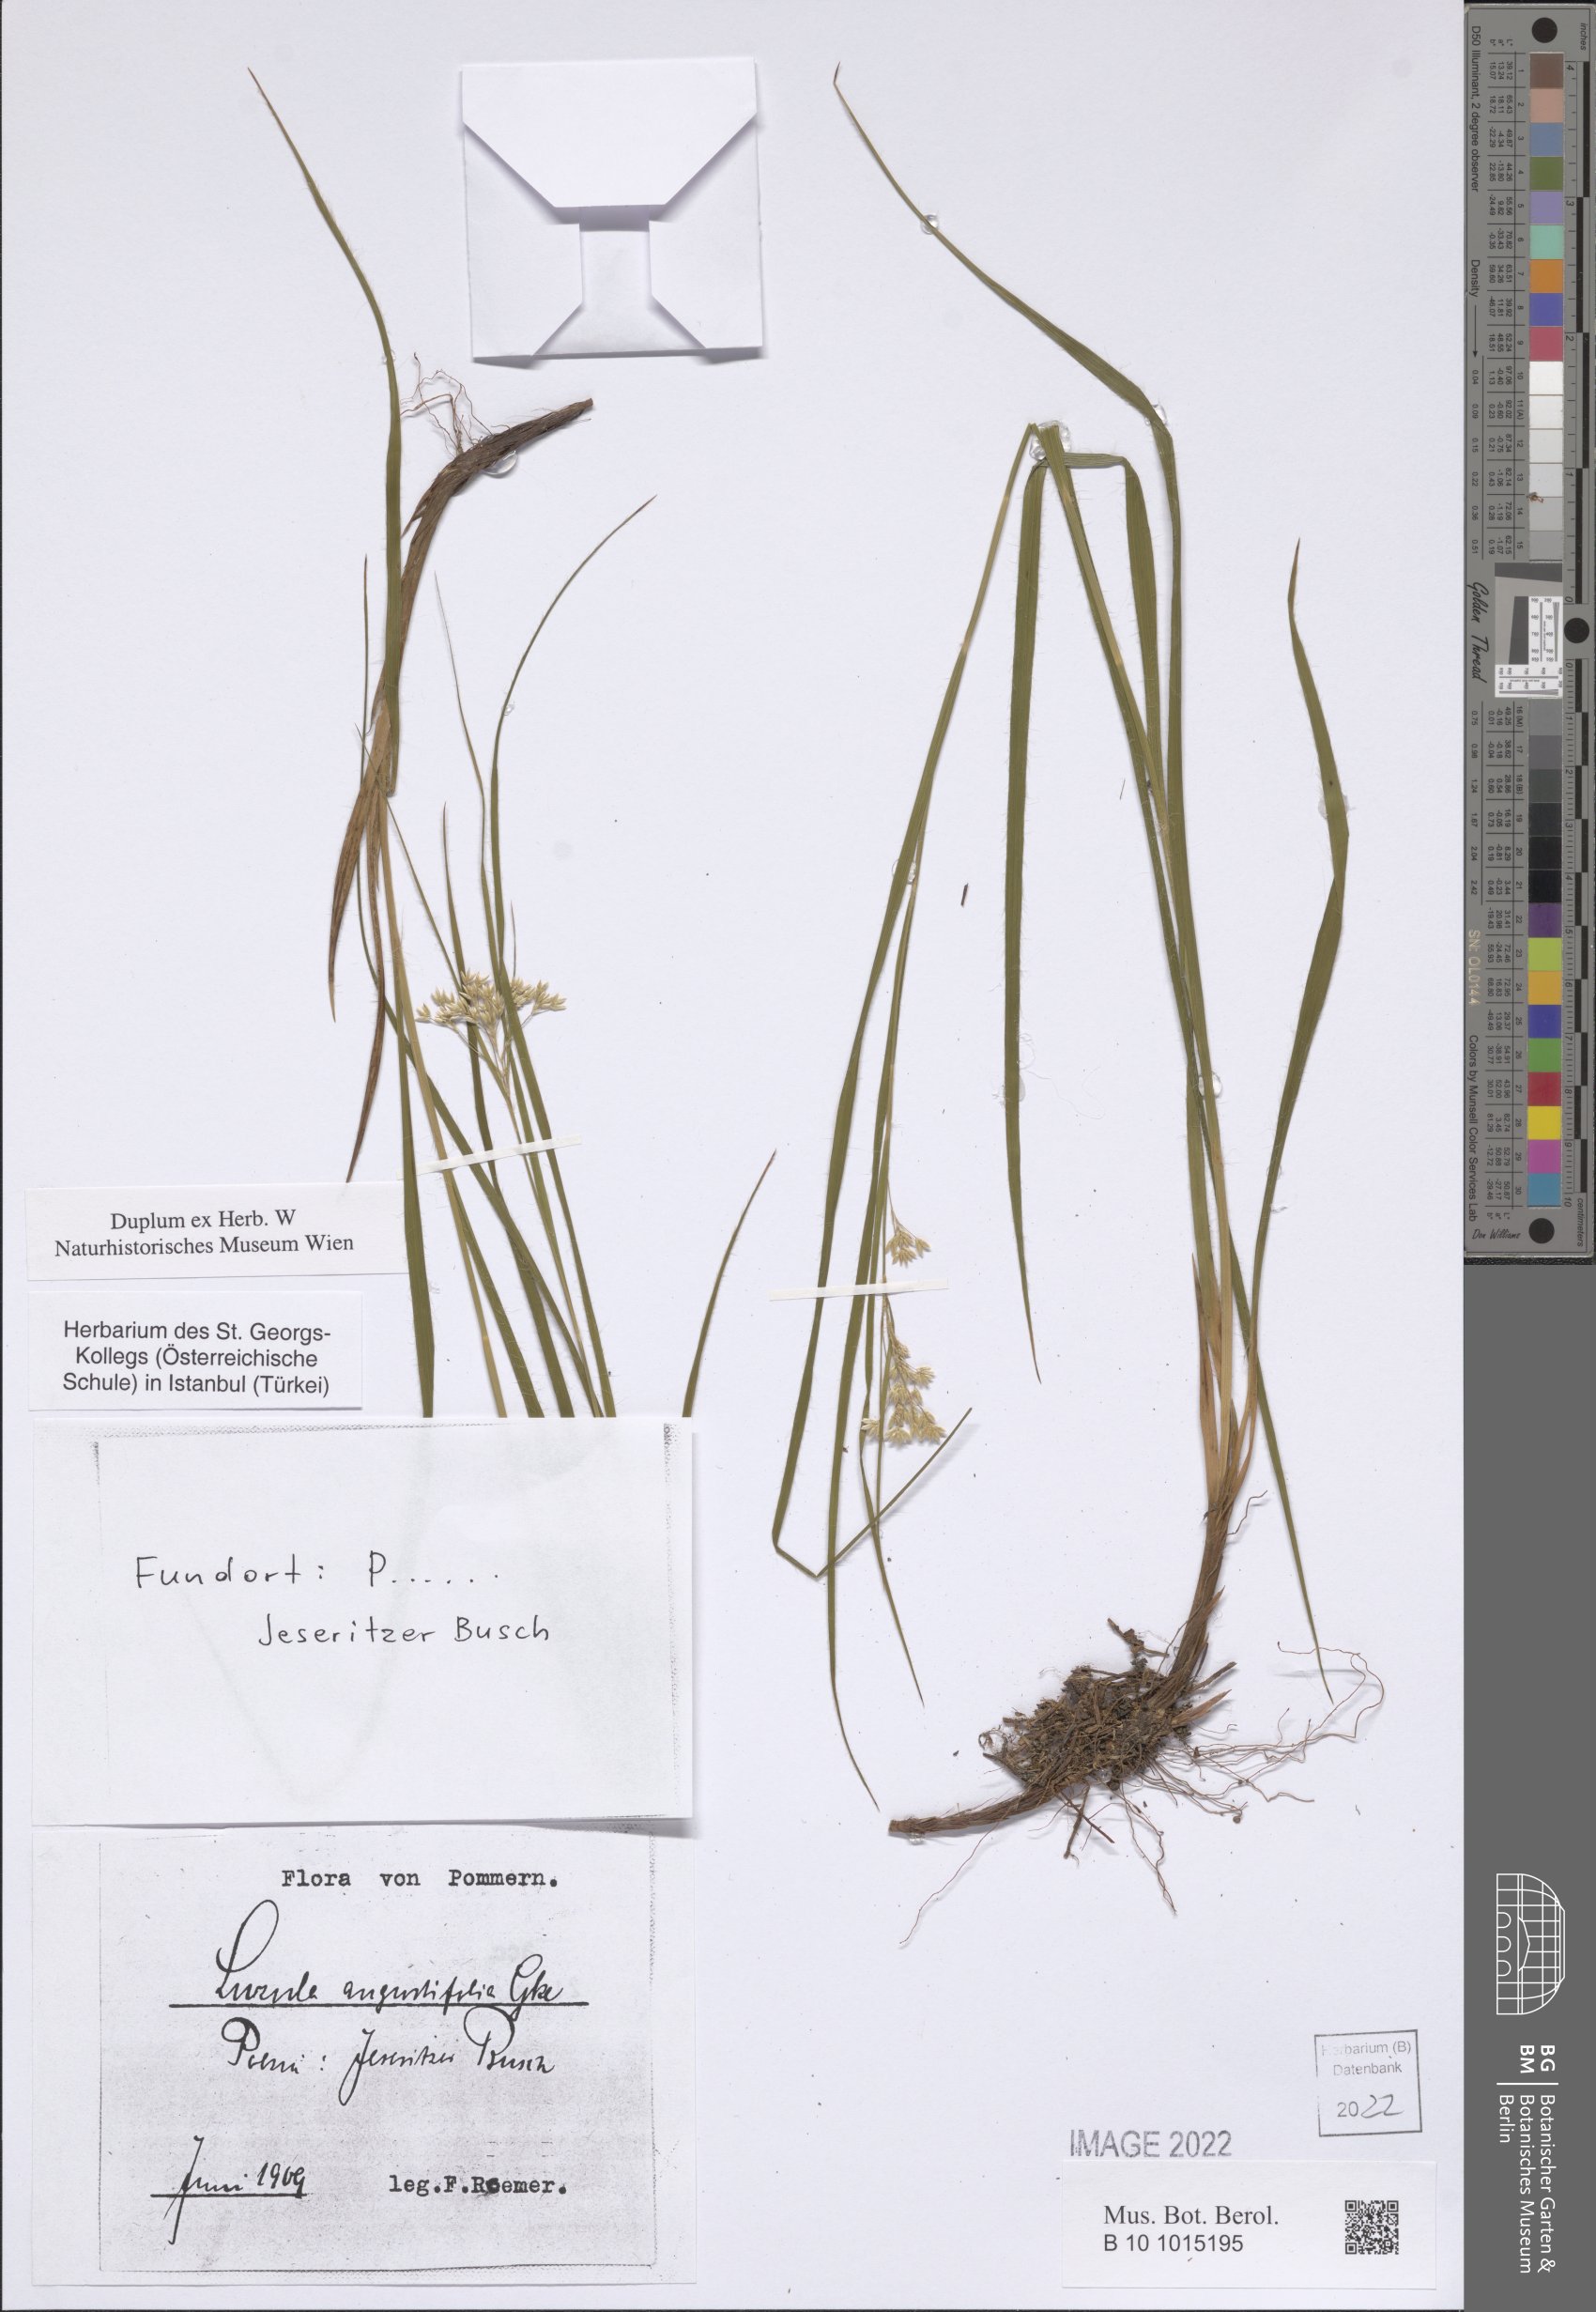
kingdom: Plantae
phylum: Tracheophyta
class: Liliopsida
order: Poales
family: Juncaceae
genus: Juncus
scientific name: Juncus marginatus
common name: Grass-leaf rush
